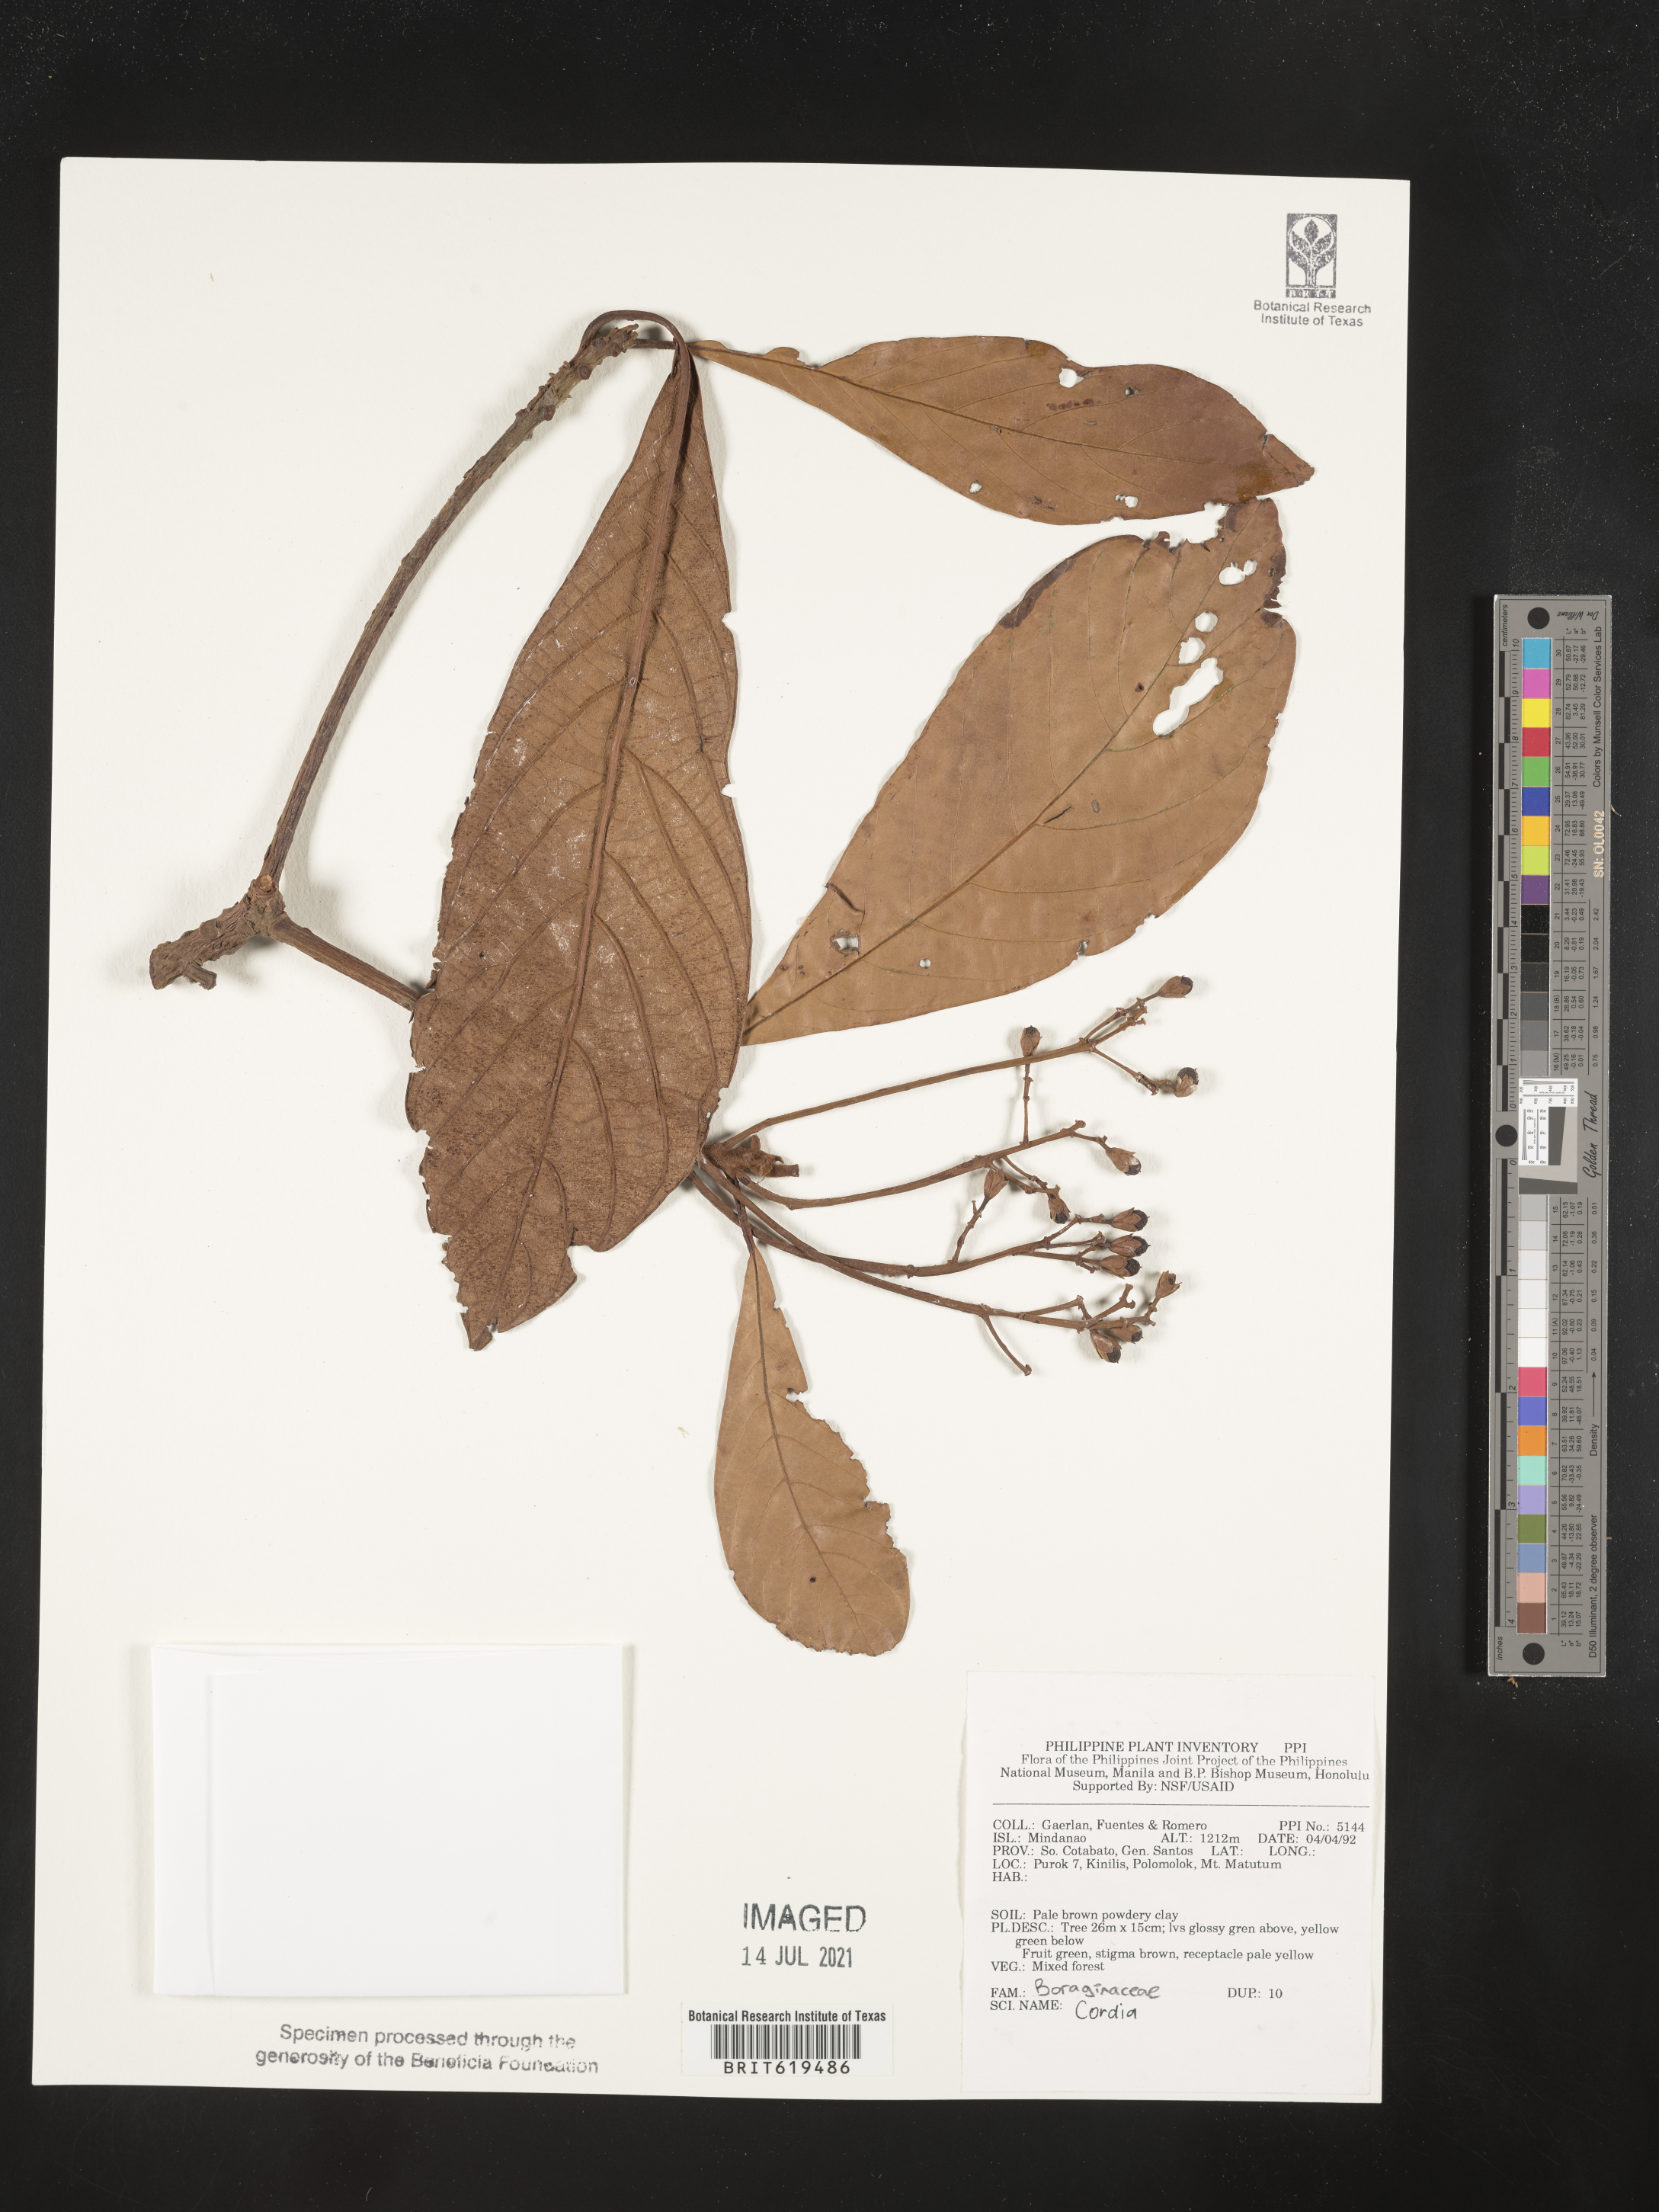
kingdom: Plantae
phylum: Tracheophyta
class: Magnoliopsida
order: Boraginales
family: Cordiaceae
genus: Cordia
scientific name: Cordia
